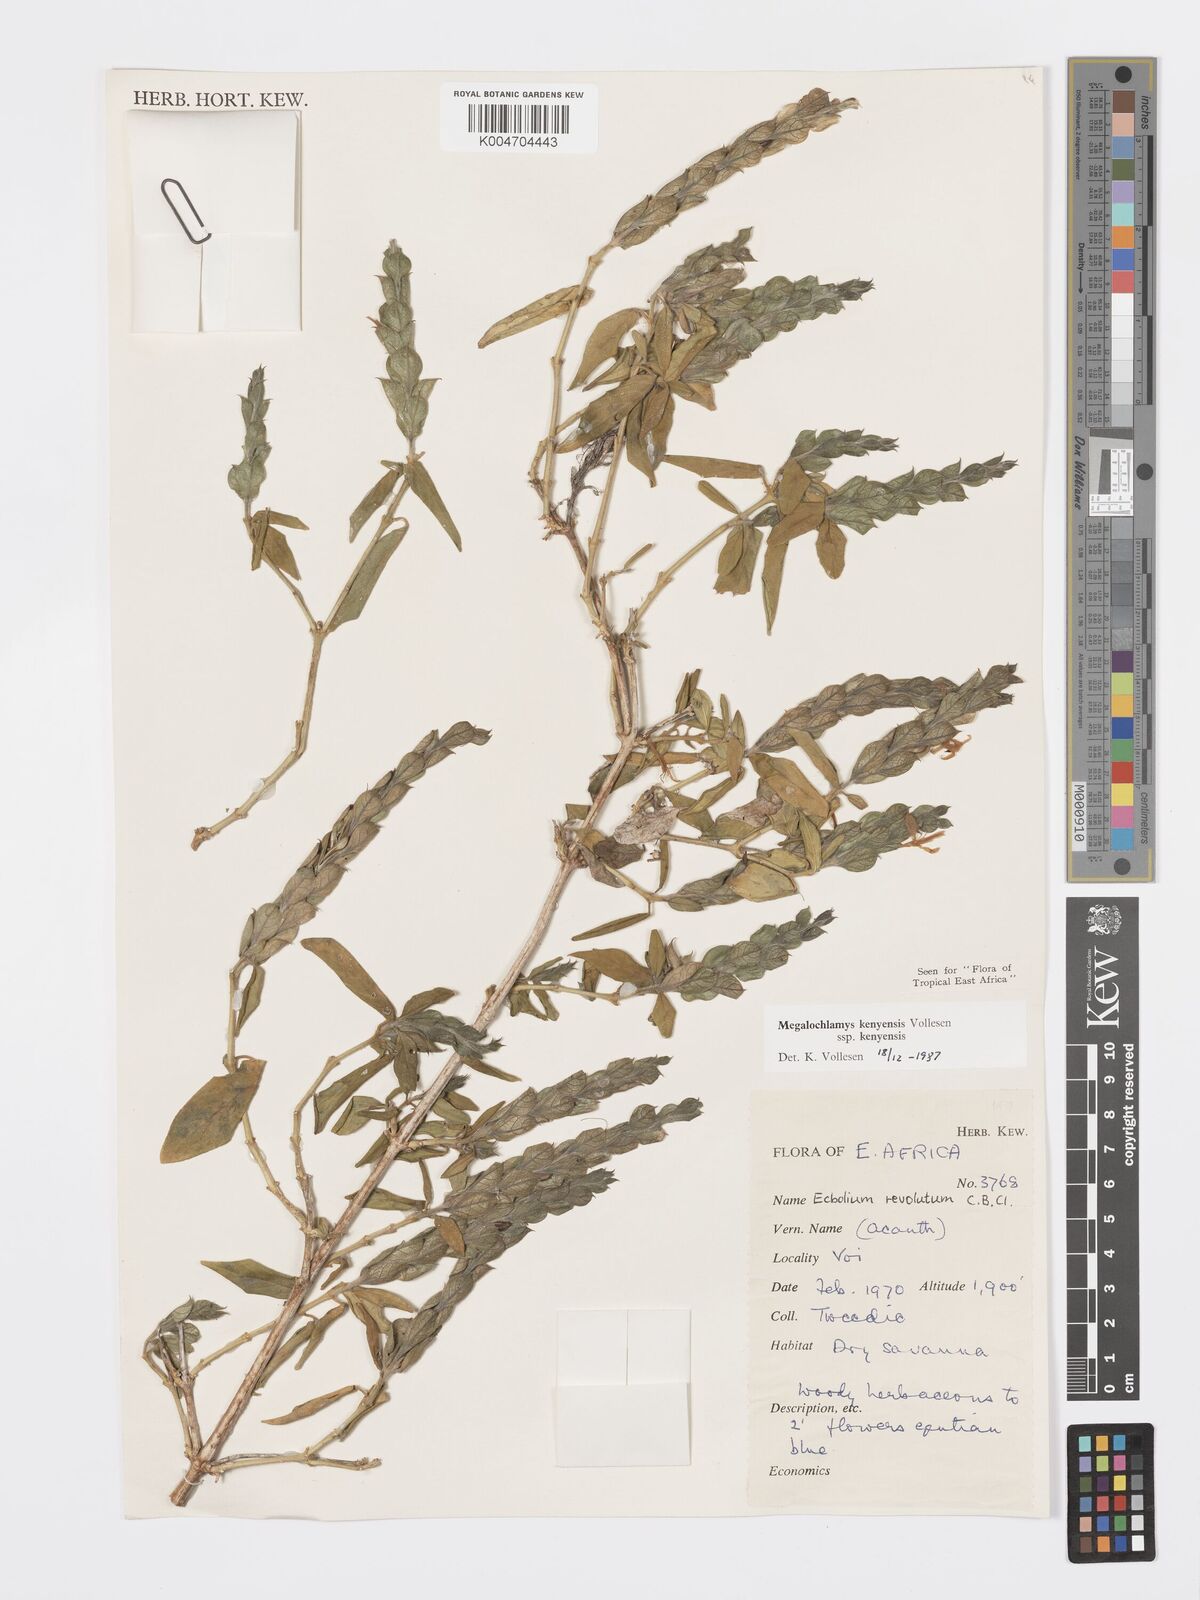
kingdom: Plantae
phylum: Tracheophyta
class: Magnoliopsida
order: Lamiales
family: Acanthaceae
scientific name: Acanthaceae
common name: Acanthaceae
